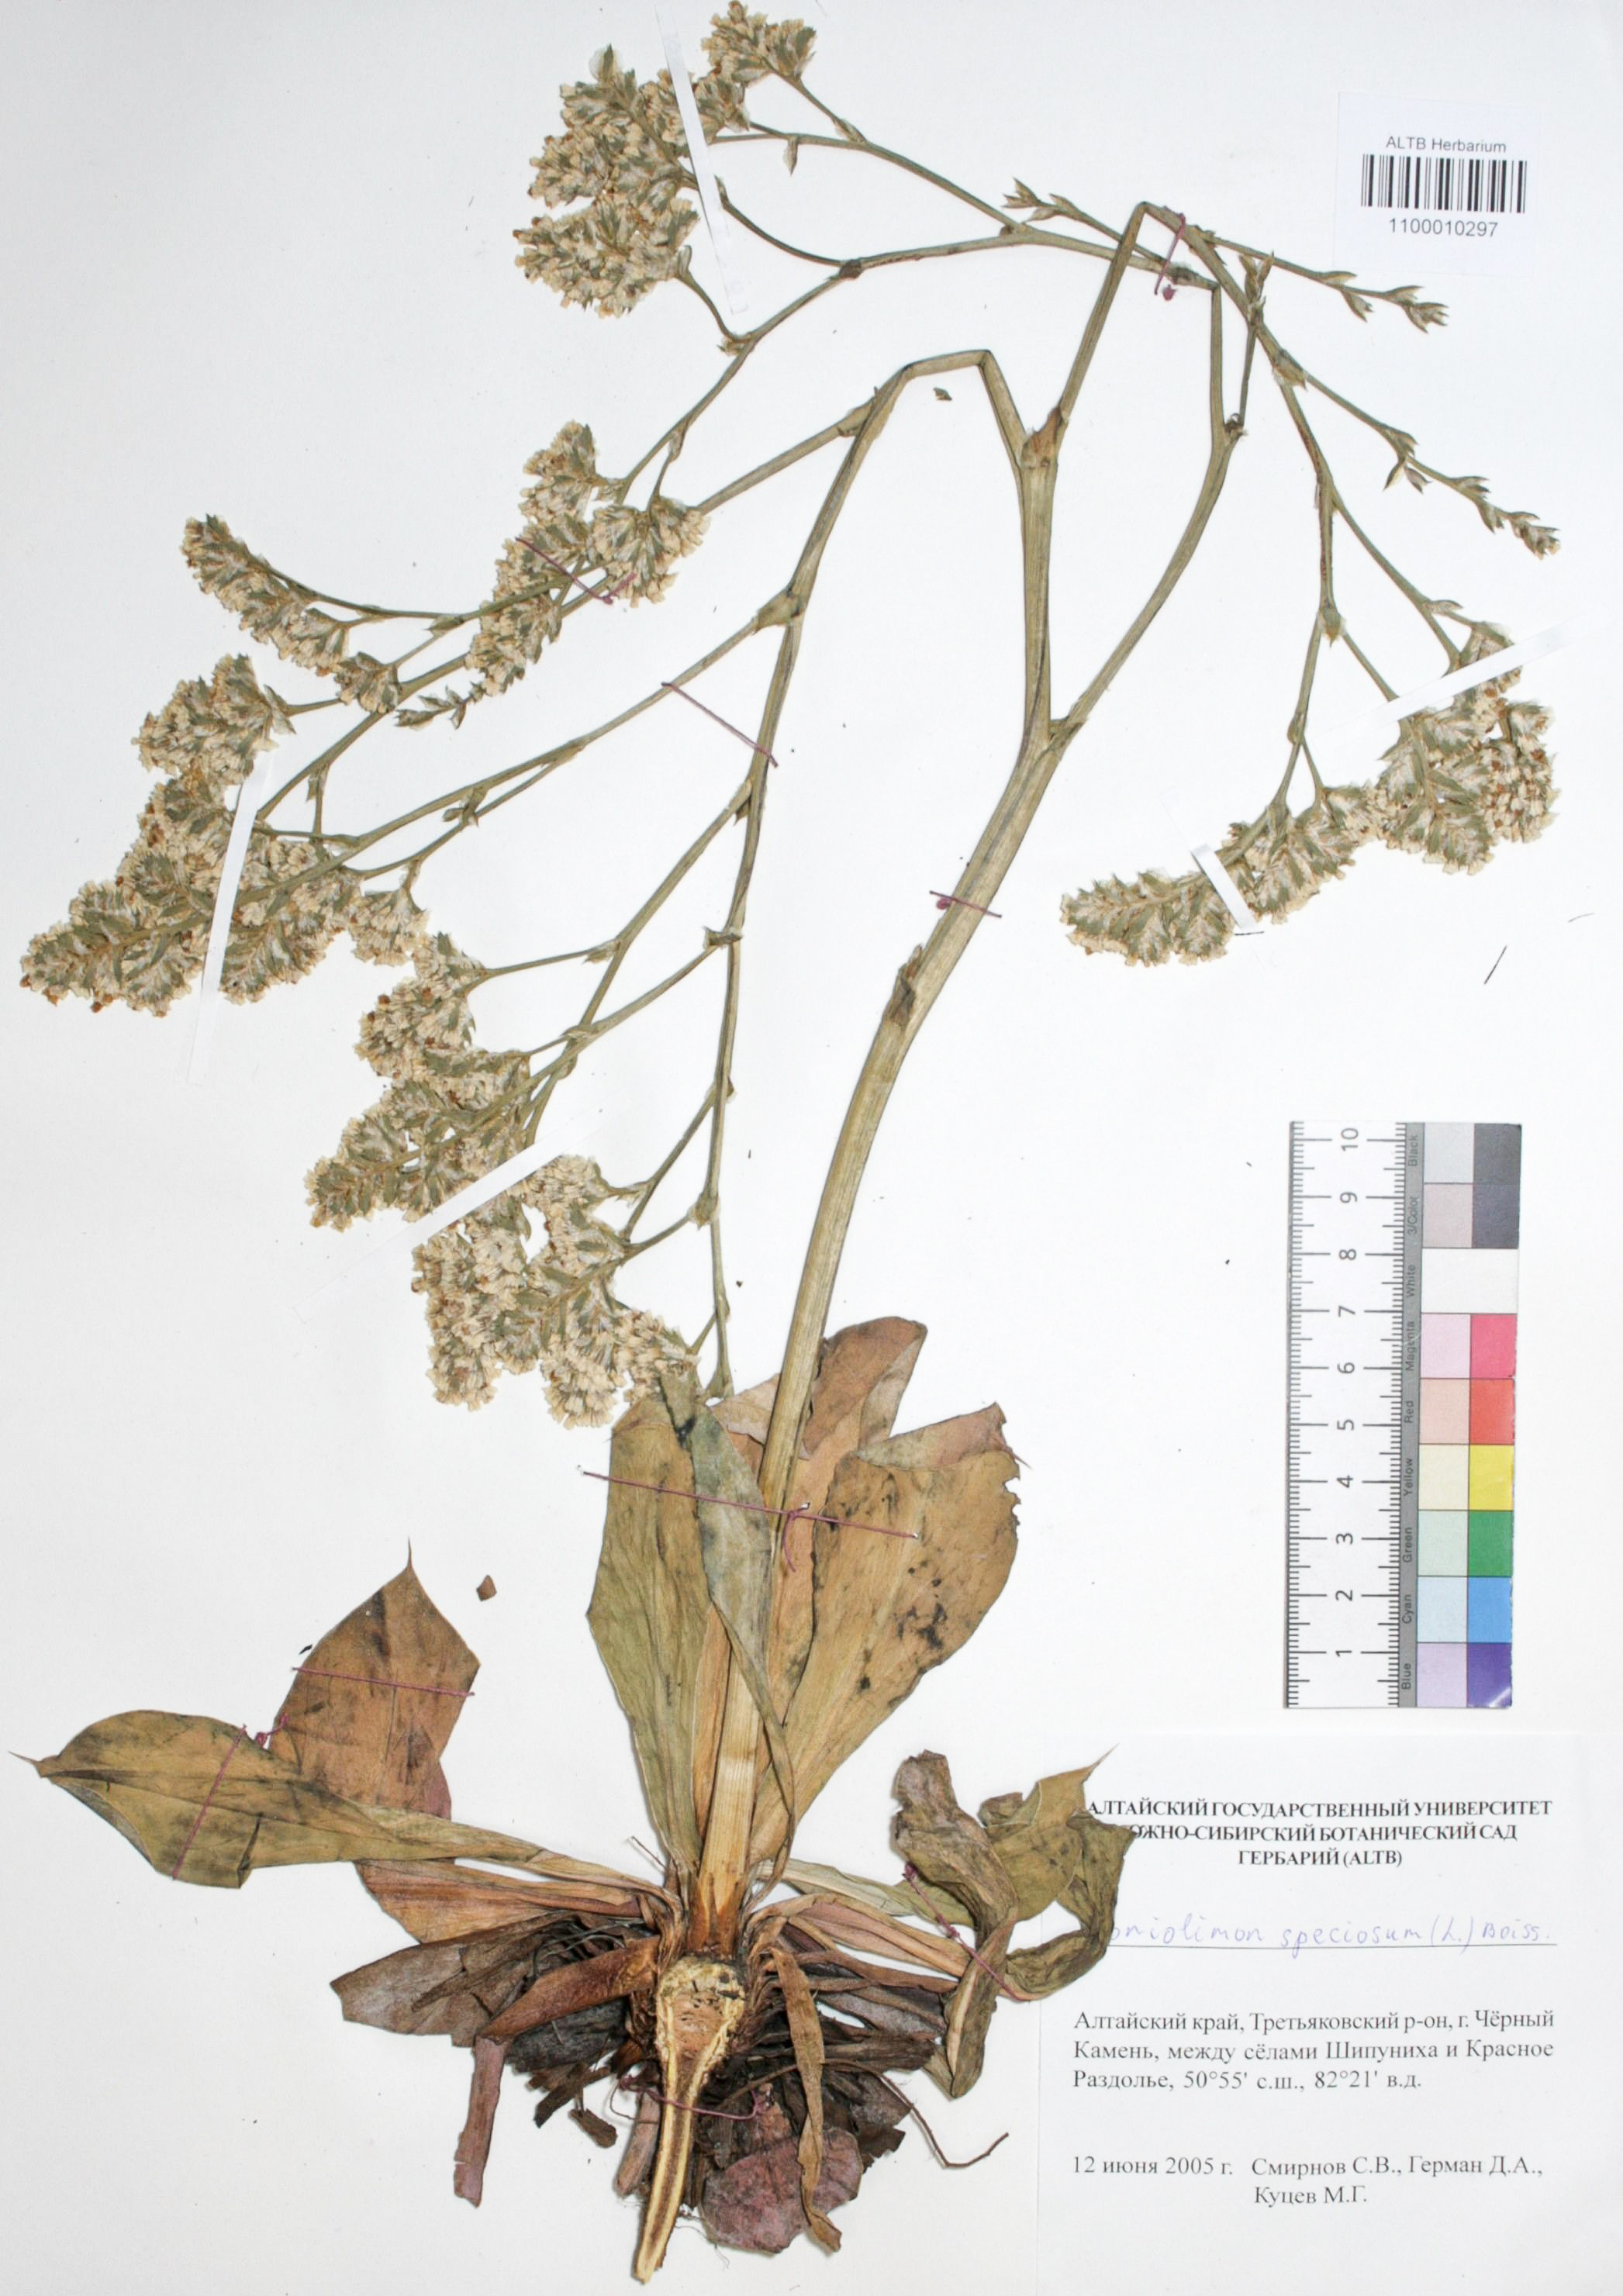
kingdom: Plantae
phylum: Tracheophyta
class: Magnoliopsida
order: Caryophyllales
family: Plumbaginaceae
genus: Goniolimon
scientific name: Goniolimon speciosum
